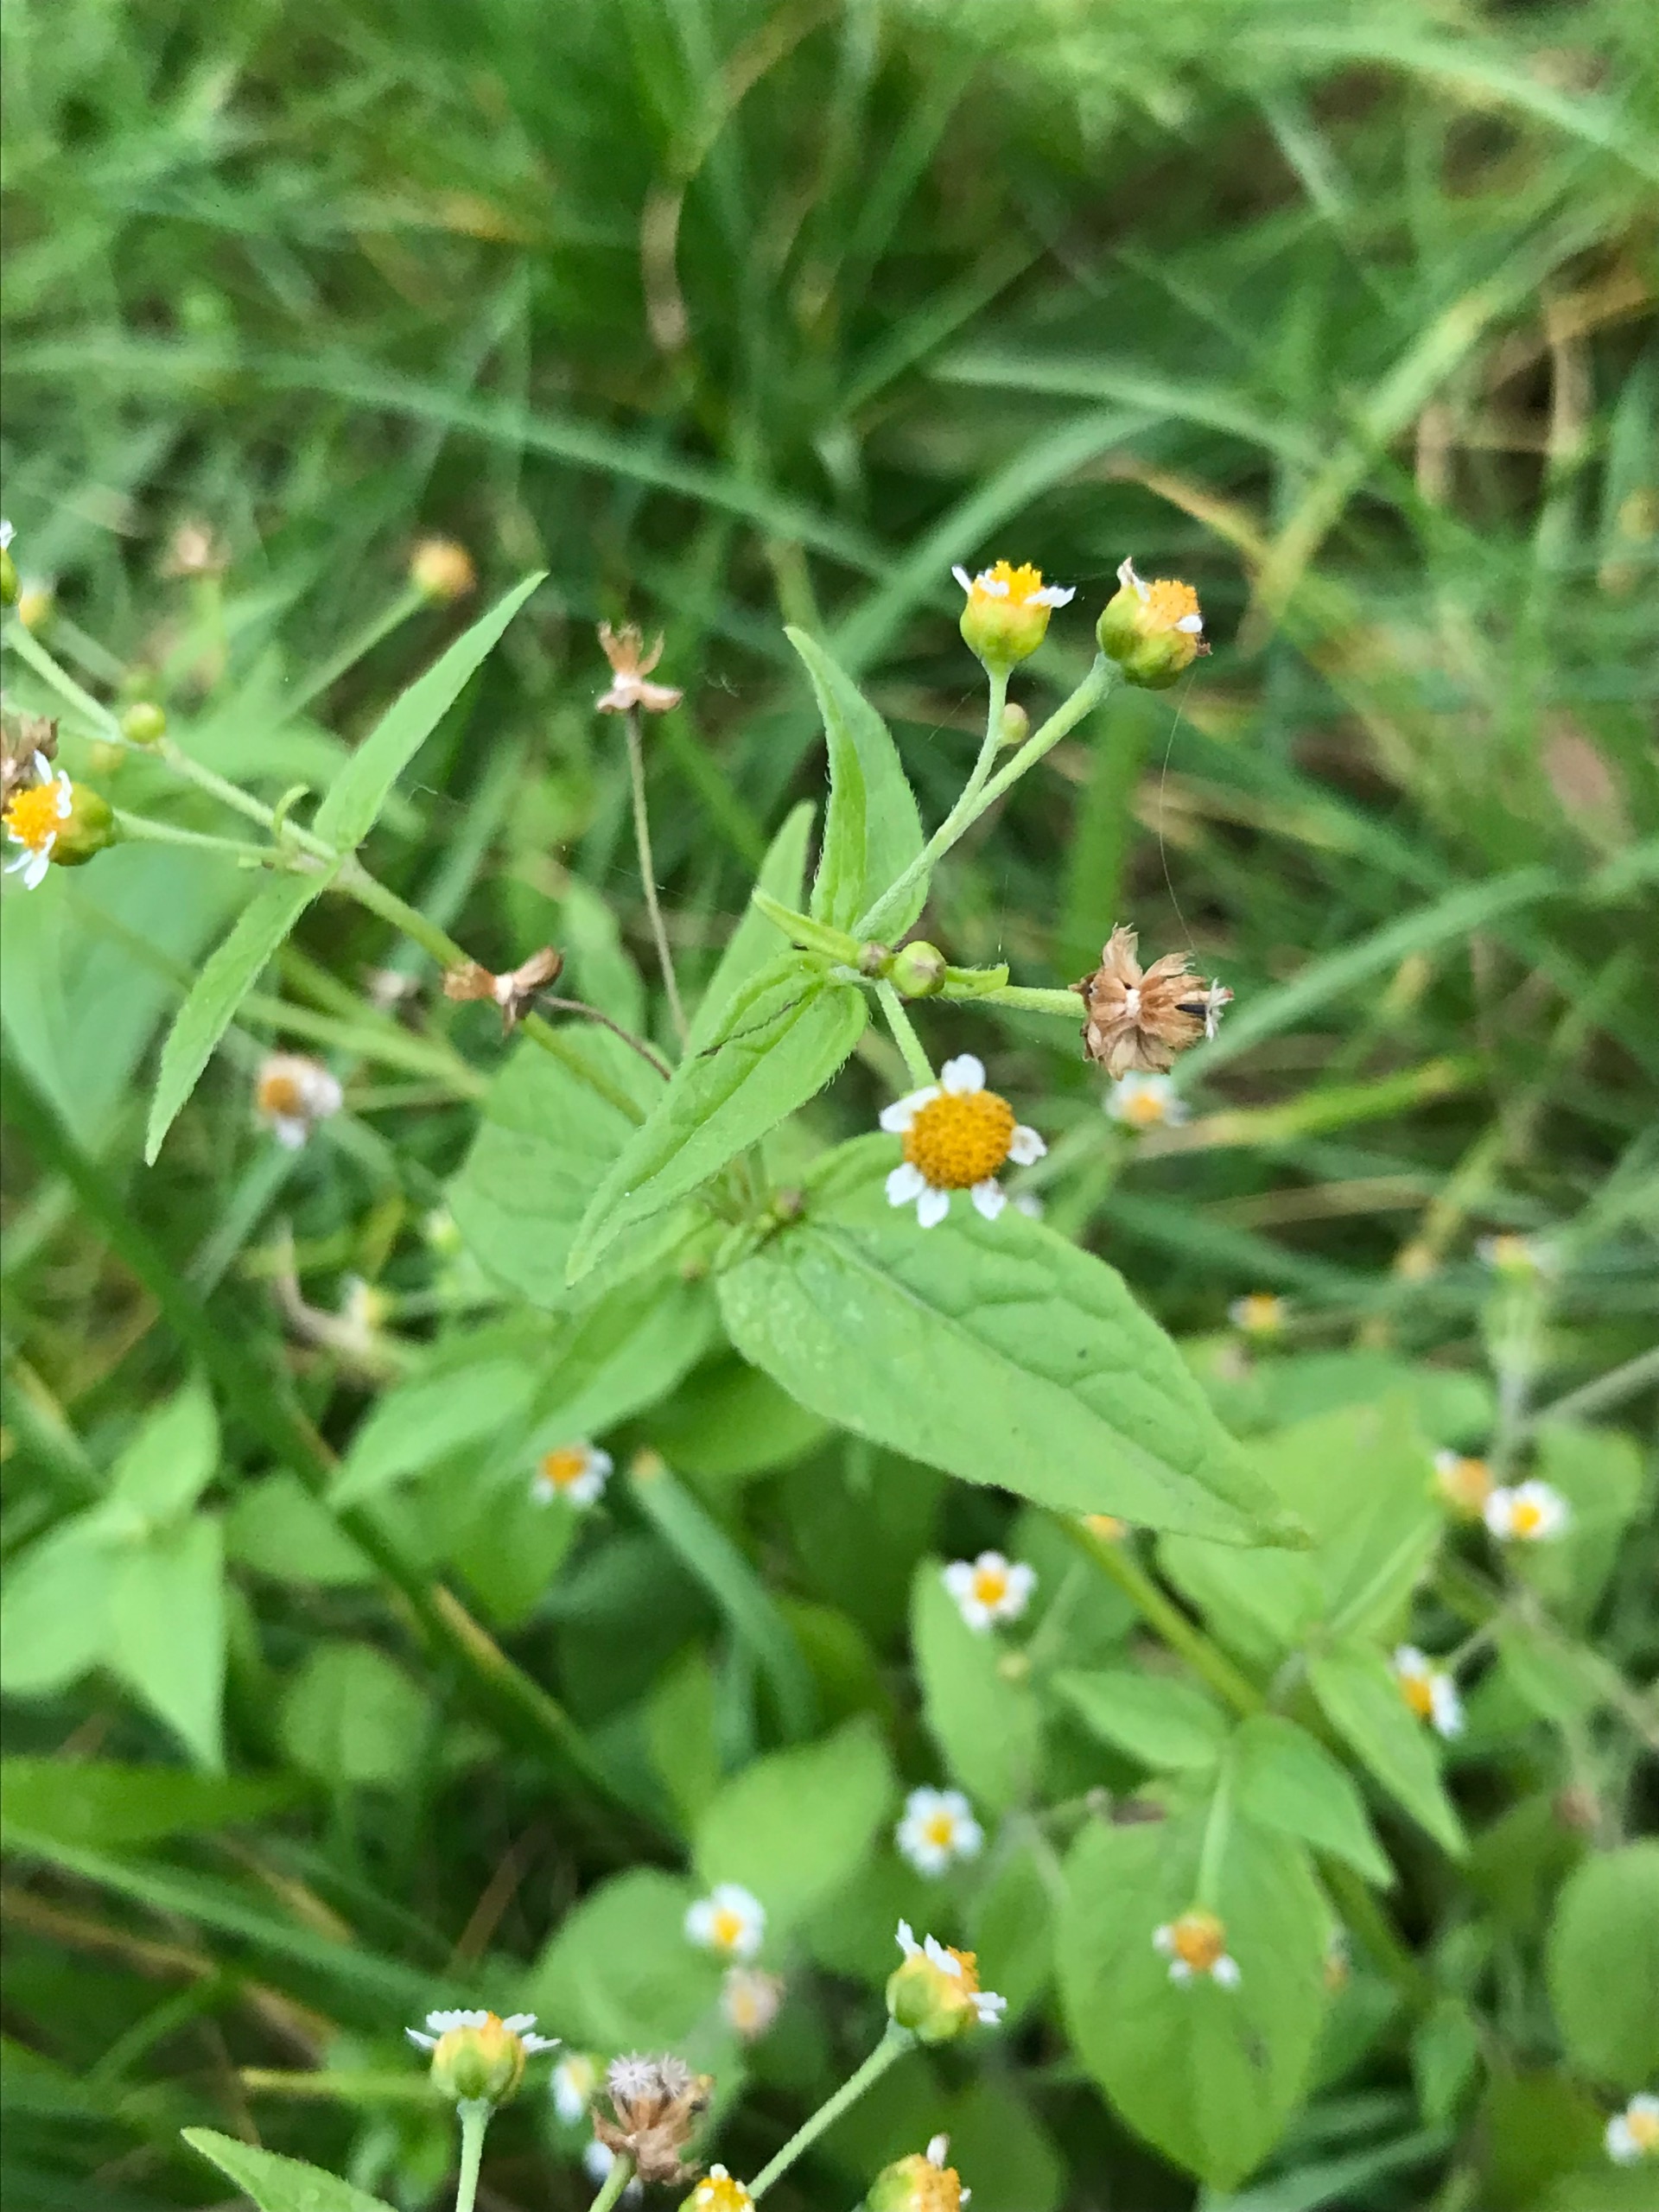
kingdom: Plantae
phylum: Tracheophyta
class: Magnoliopsida
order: Asterales
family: Asteraceae
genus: Galinsoga
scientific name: Galinsoga parviflora
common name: Håret kortstråle
